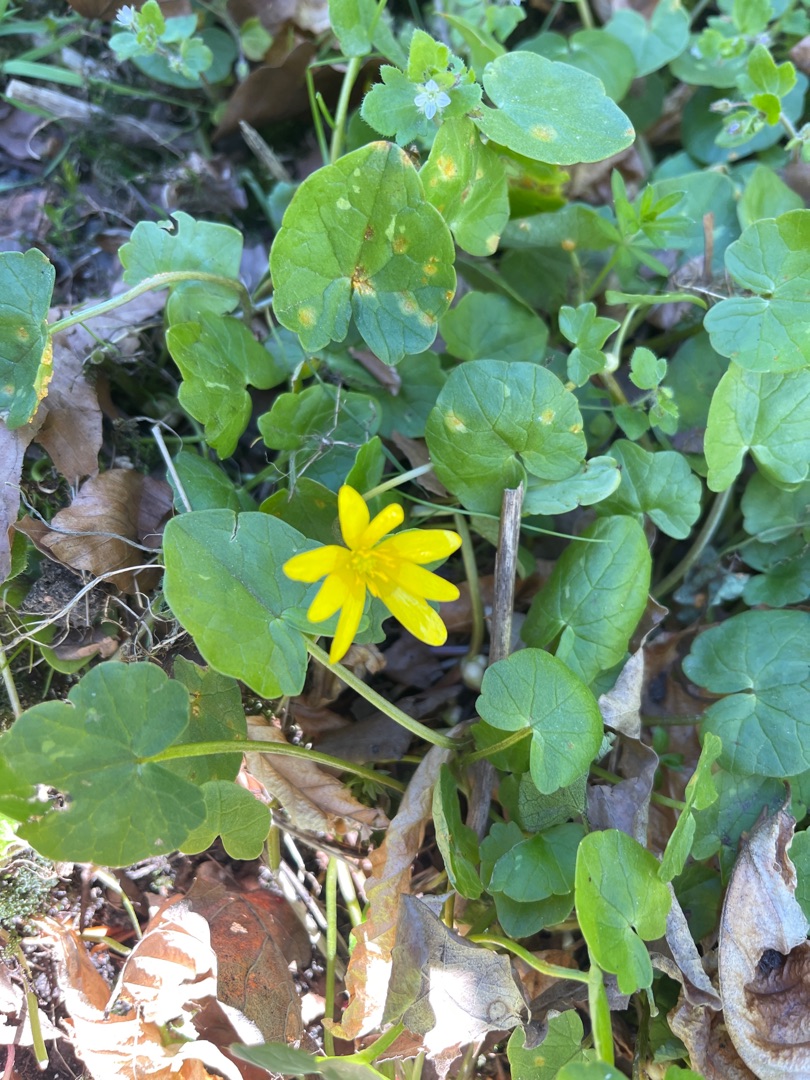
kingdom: Plantae
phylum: Tracheophyta
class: Magnoliopsida
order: Ranunculales
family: Ranunculaceae
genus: Ficaria
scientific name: Ficaria verna
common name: Vorterod
